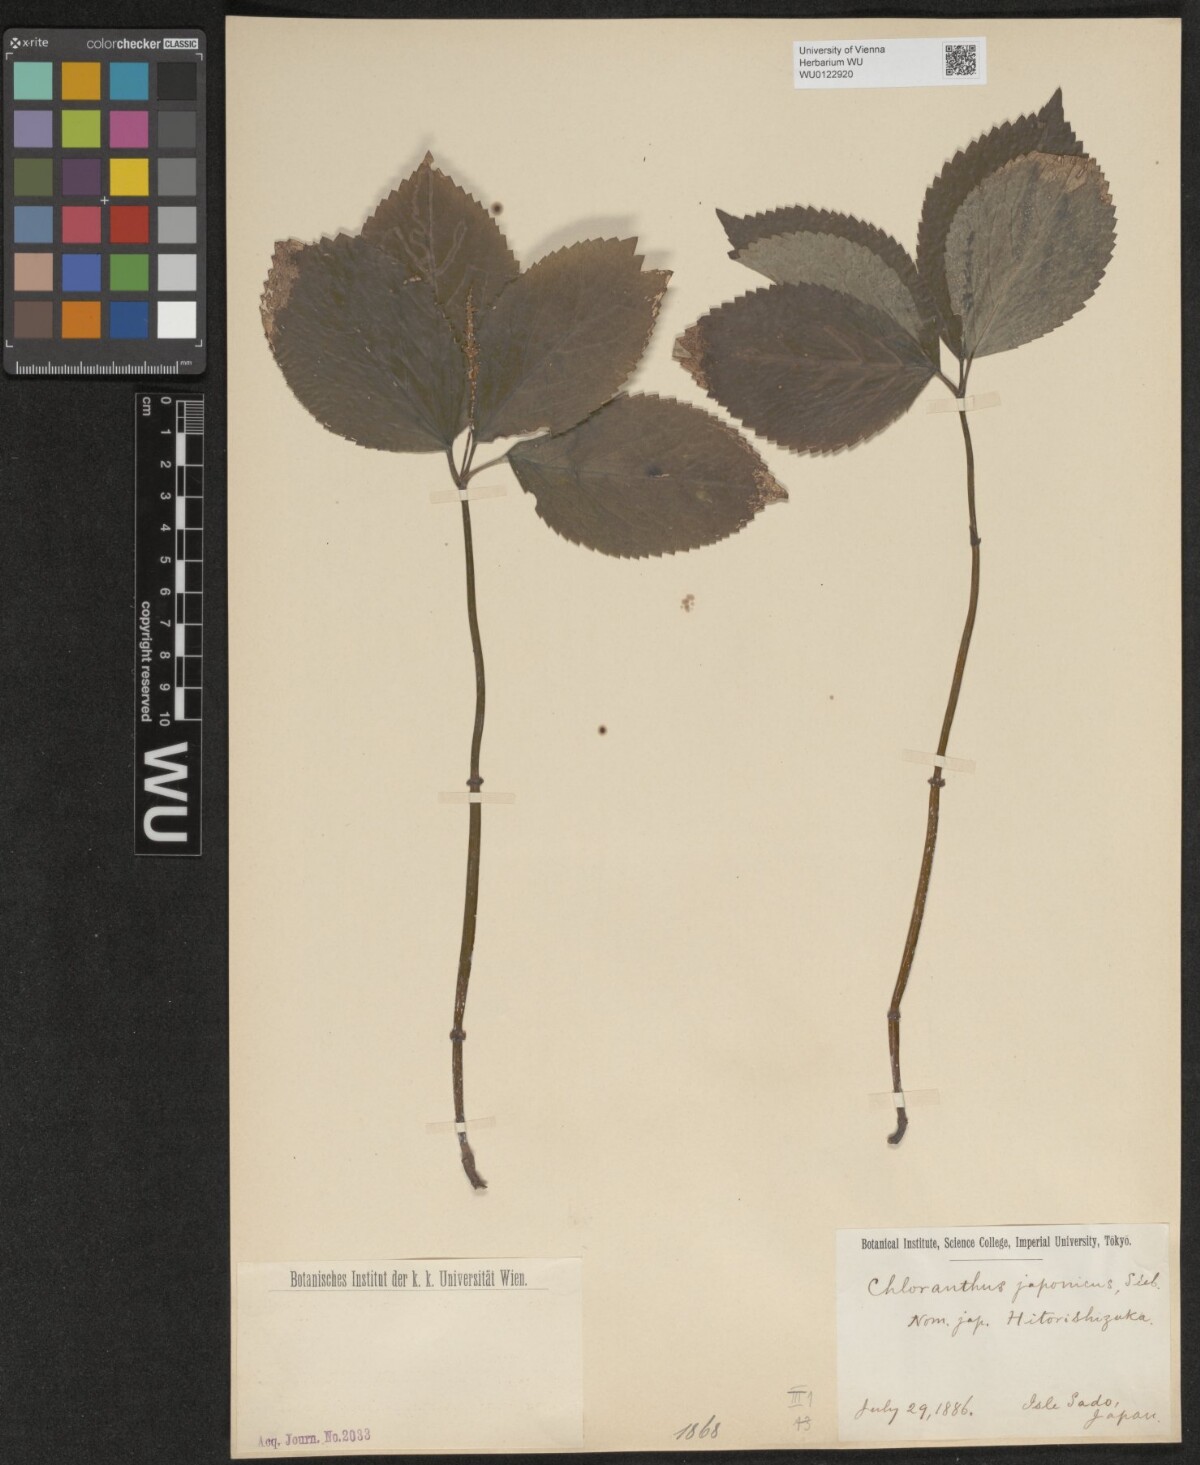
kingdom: Plantae
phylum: Tracheophyta
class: Magnoliopsida
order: Chloranthales
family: Chloranthaceae
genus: Chloranthus
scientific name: Chloranthus japonicus
